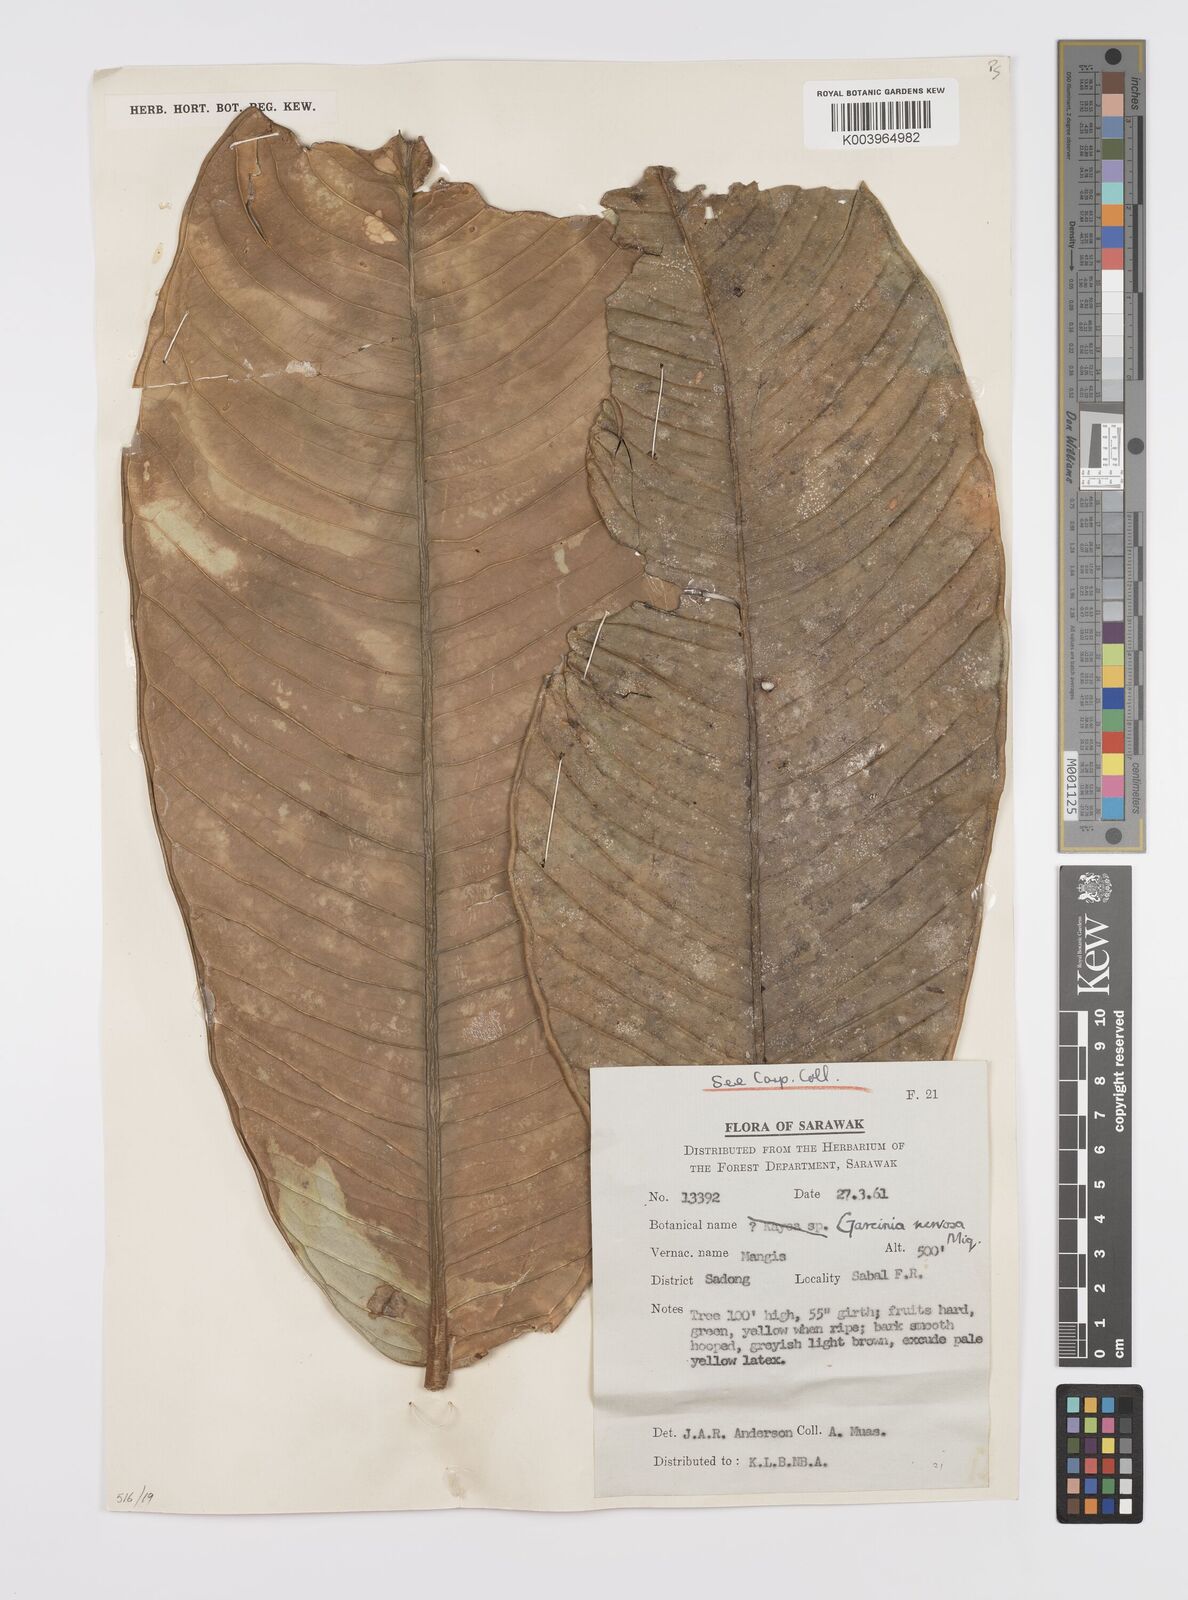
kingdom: Plantae
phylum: Tracheophyta
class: Magnoliopsida
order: Malpighiales
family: Clusiaceae
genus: Garcinia
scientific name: Garcinia nervosa
